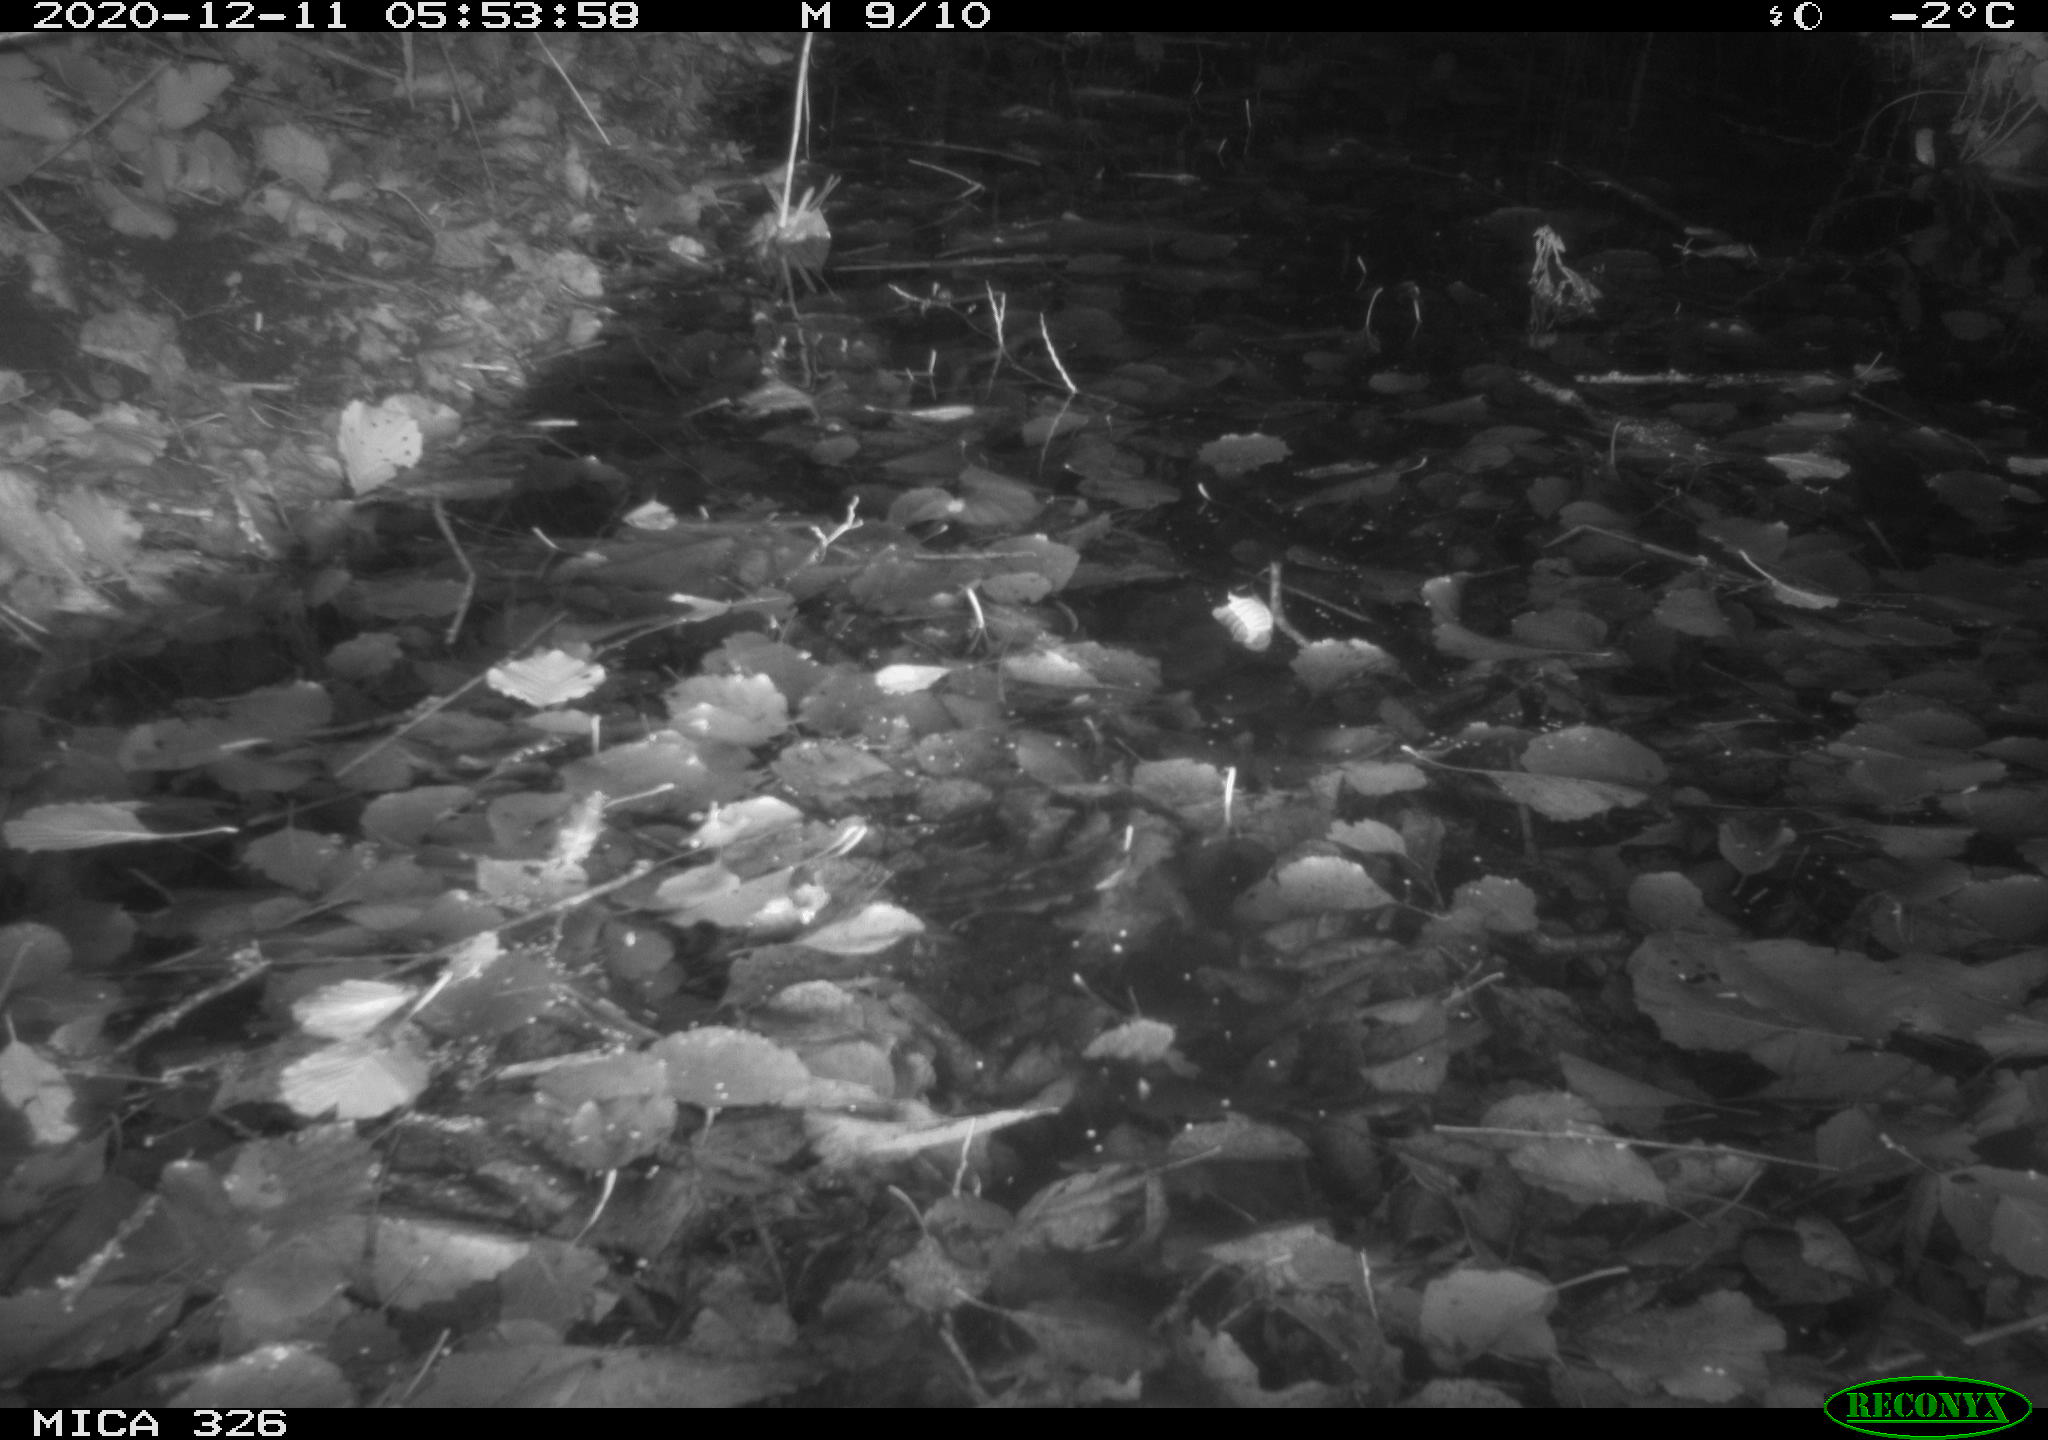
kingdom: Animalia
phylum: Chordata
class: Mammalia
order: Rodentia
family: Cricetidae
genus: Ondatra
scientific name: Ondatra zibethicus
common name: Muskrat
